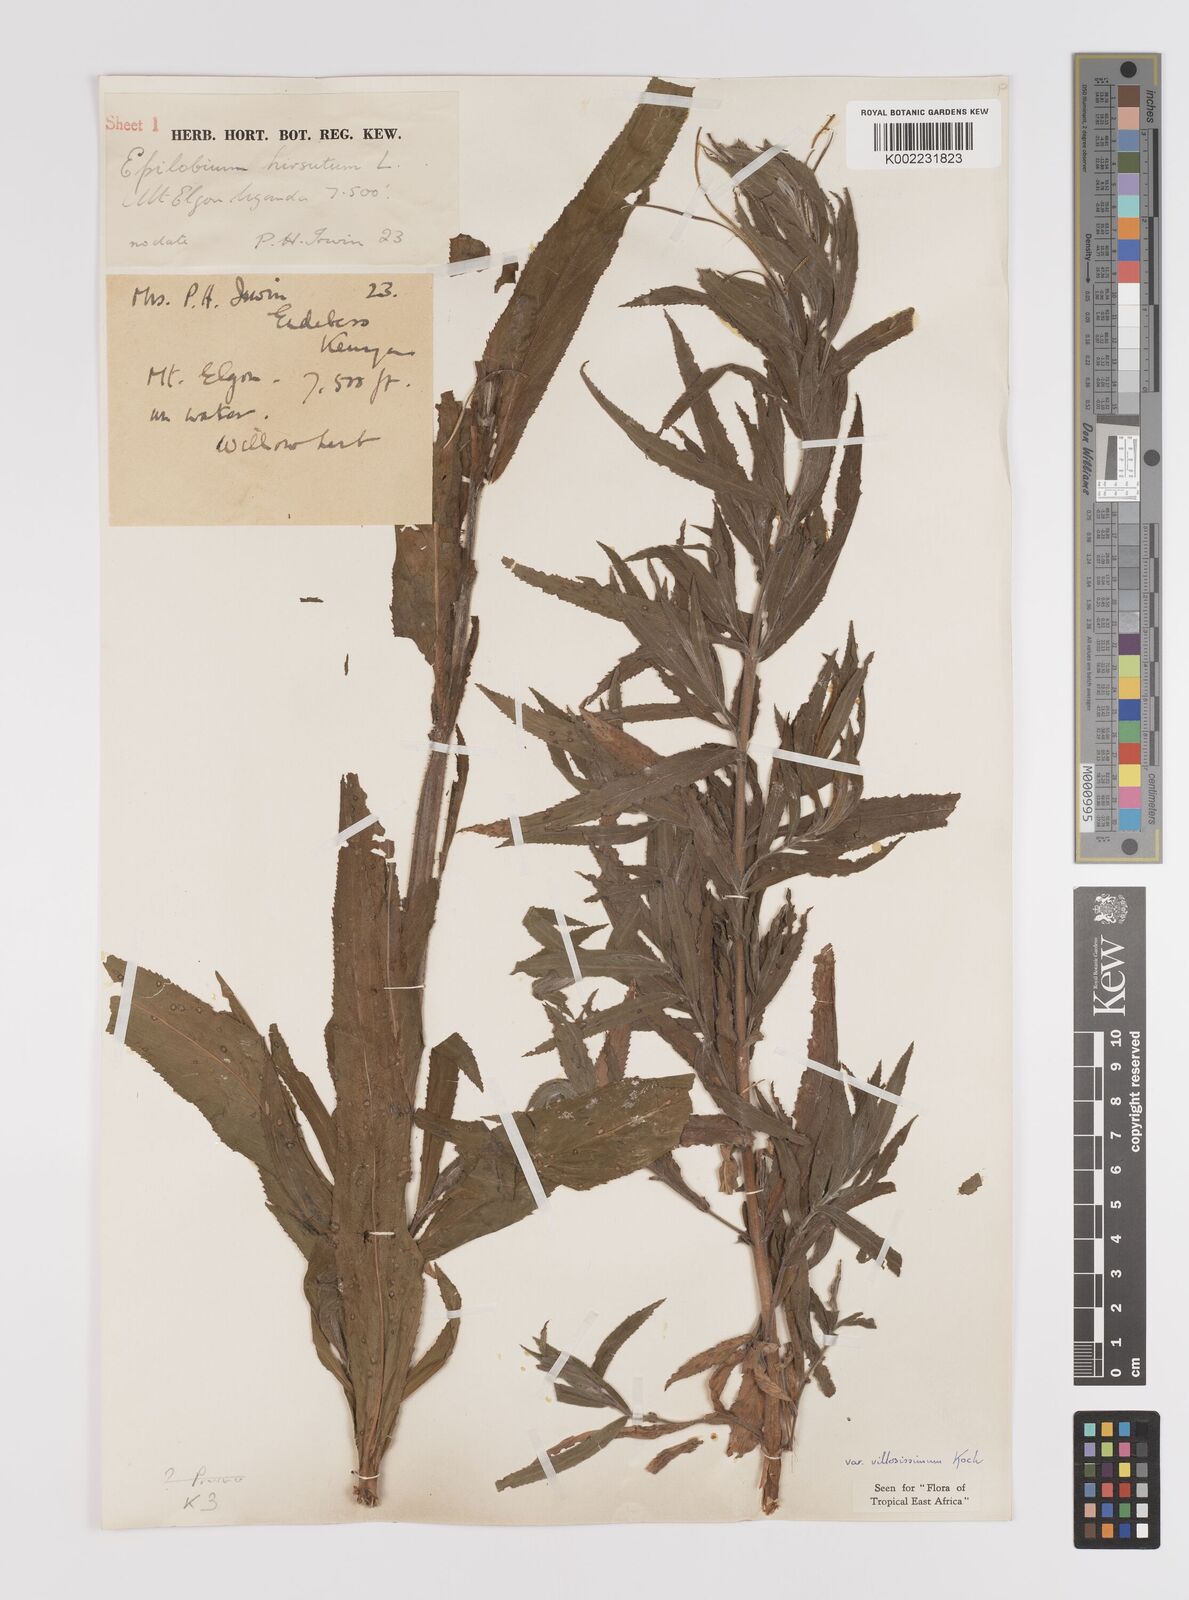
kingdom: Plantae
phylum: Tracheophyta
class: Magnoliopsida
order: Myrtales
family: Onagraceae
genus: Epilobium
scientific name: Epilobium hirsutum
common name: Great willowherb
